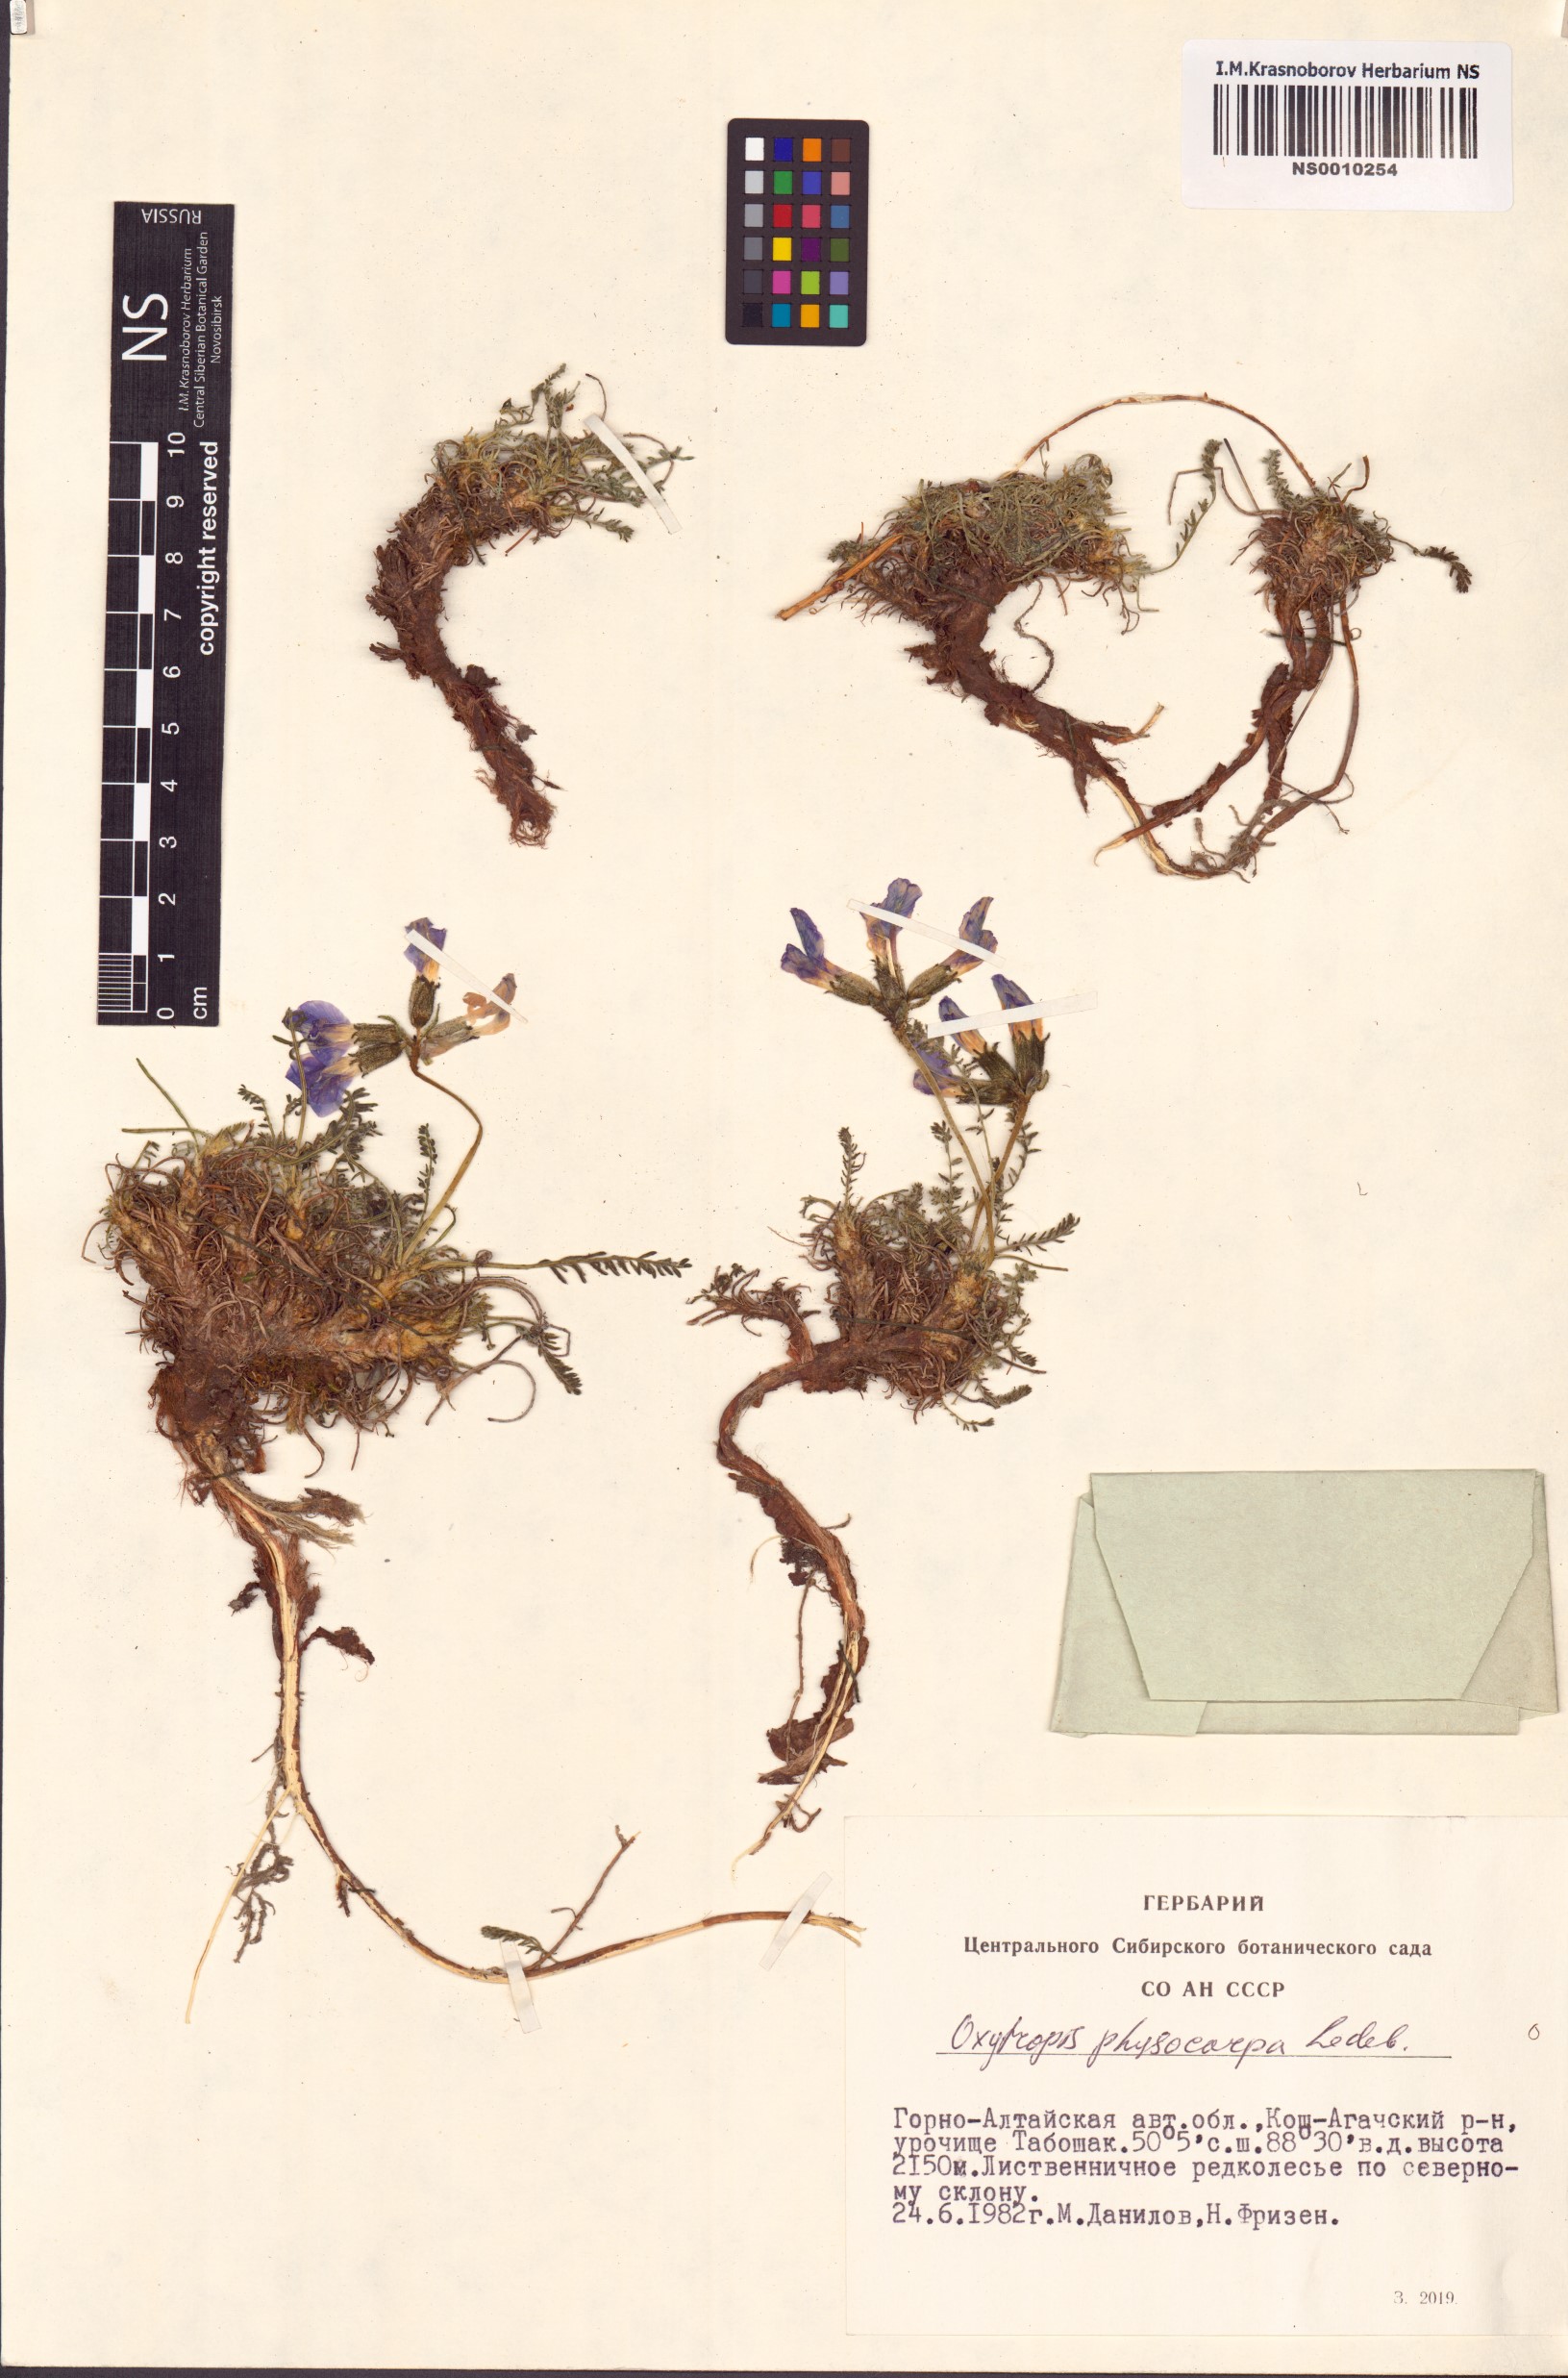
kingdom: Plantae
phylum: Tracheophyta
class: Magnoliopsida
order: Fabales
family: Fabaceae
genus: Oxytropis
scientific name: Oxytropis physocarpa
